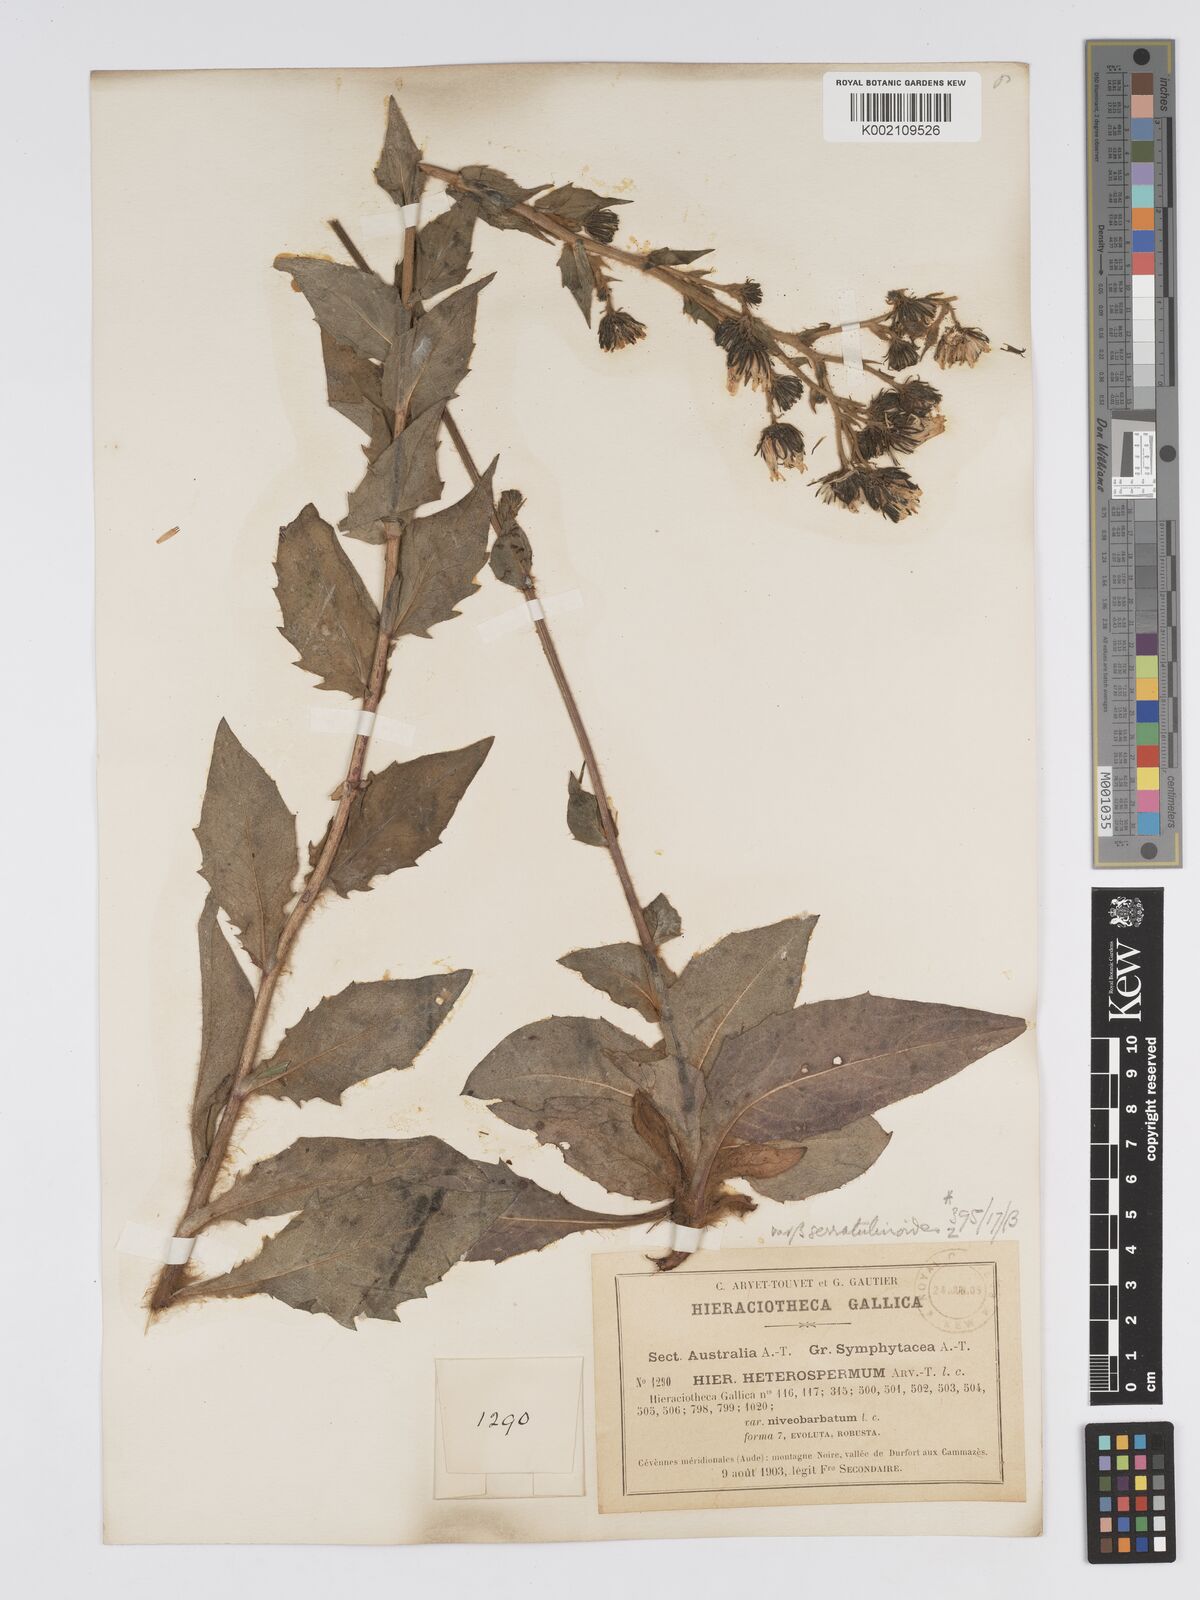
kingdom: Plantae
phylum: Tracheophyta
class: Magnoliopsida
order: Asterales
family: Asteraceae
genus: Hieracium
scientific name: Hieracium racemosum
